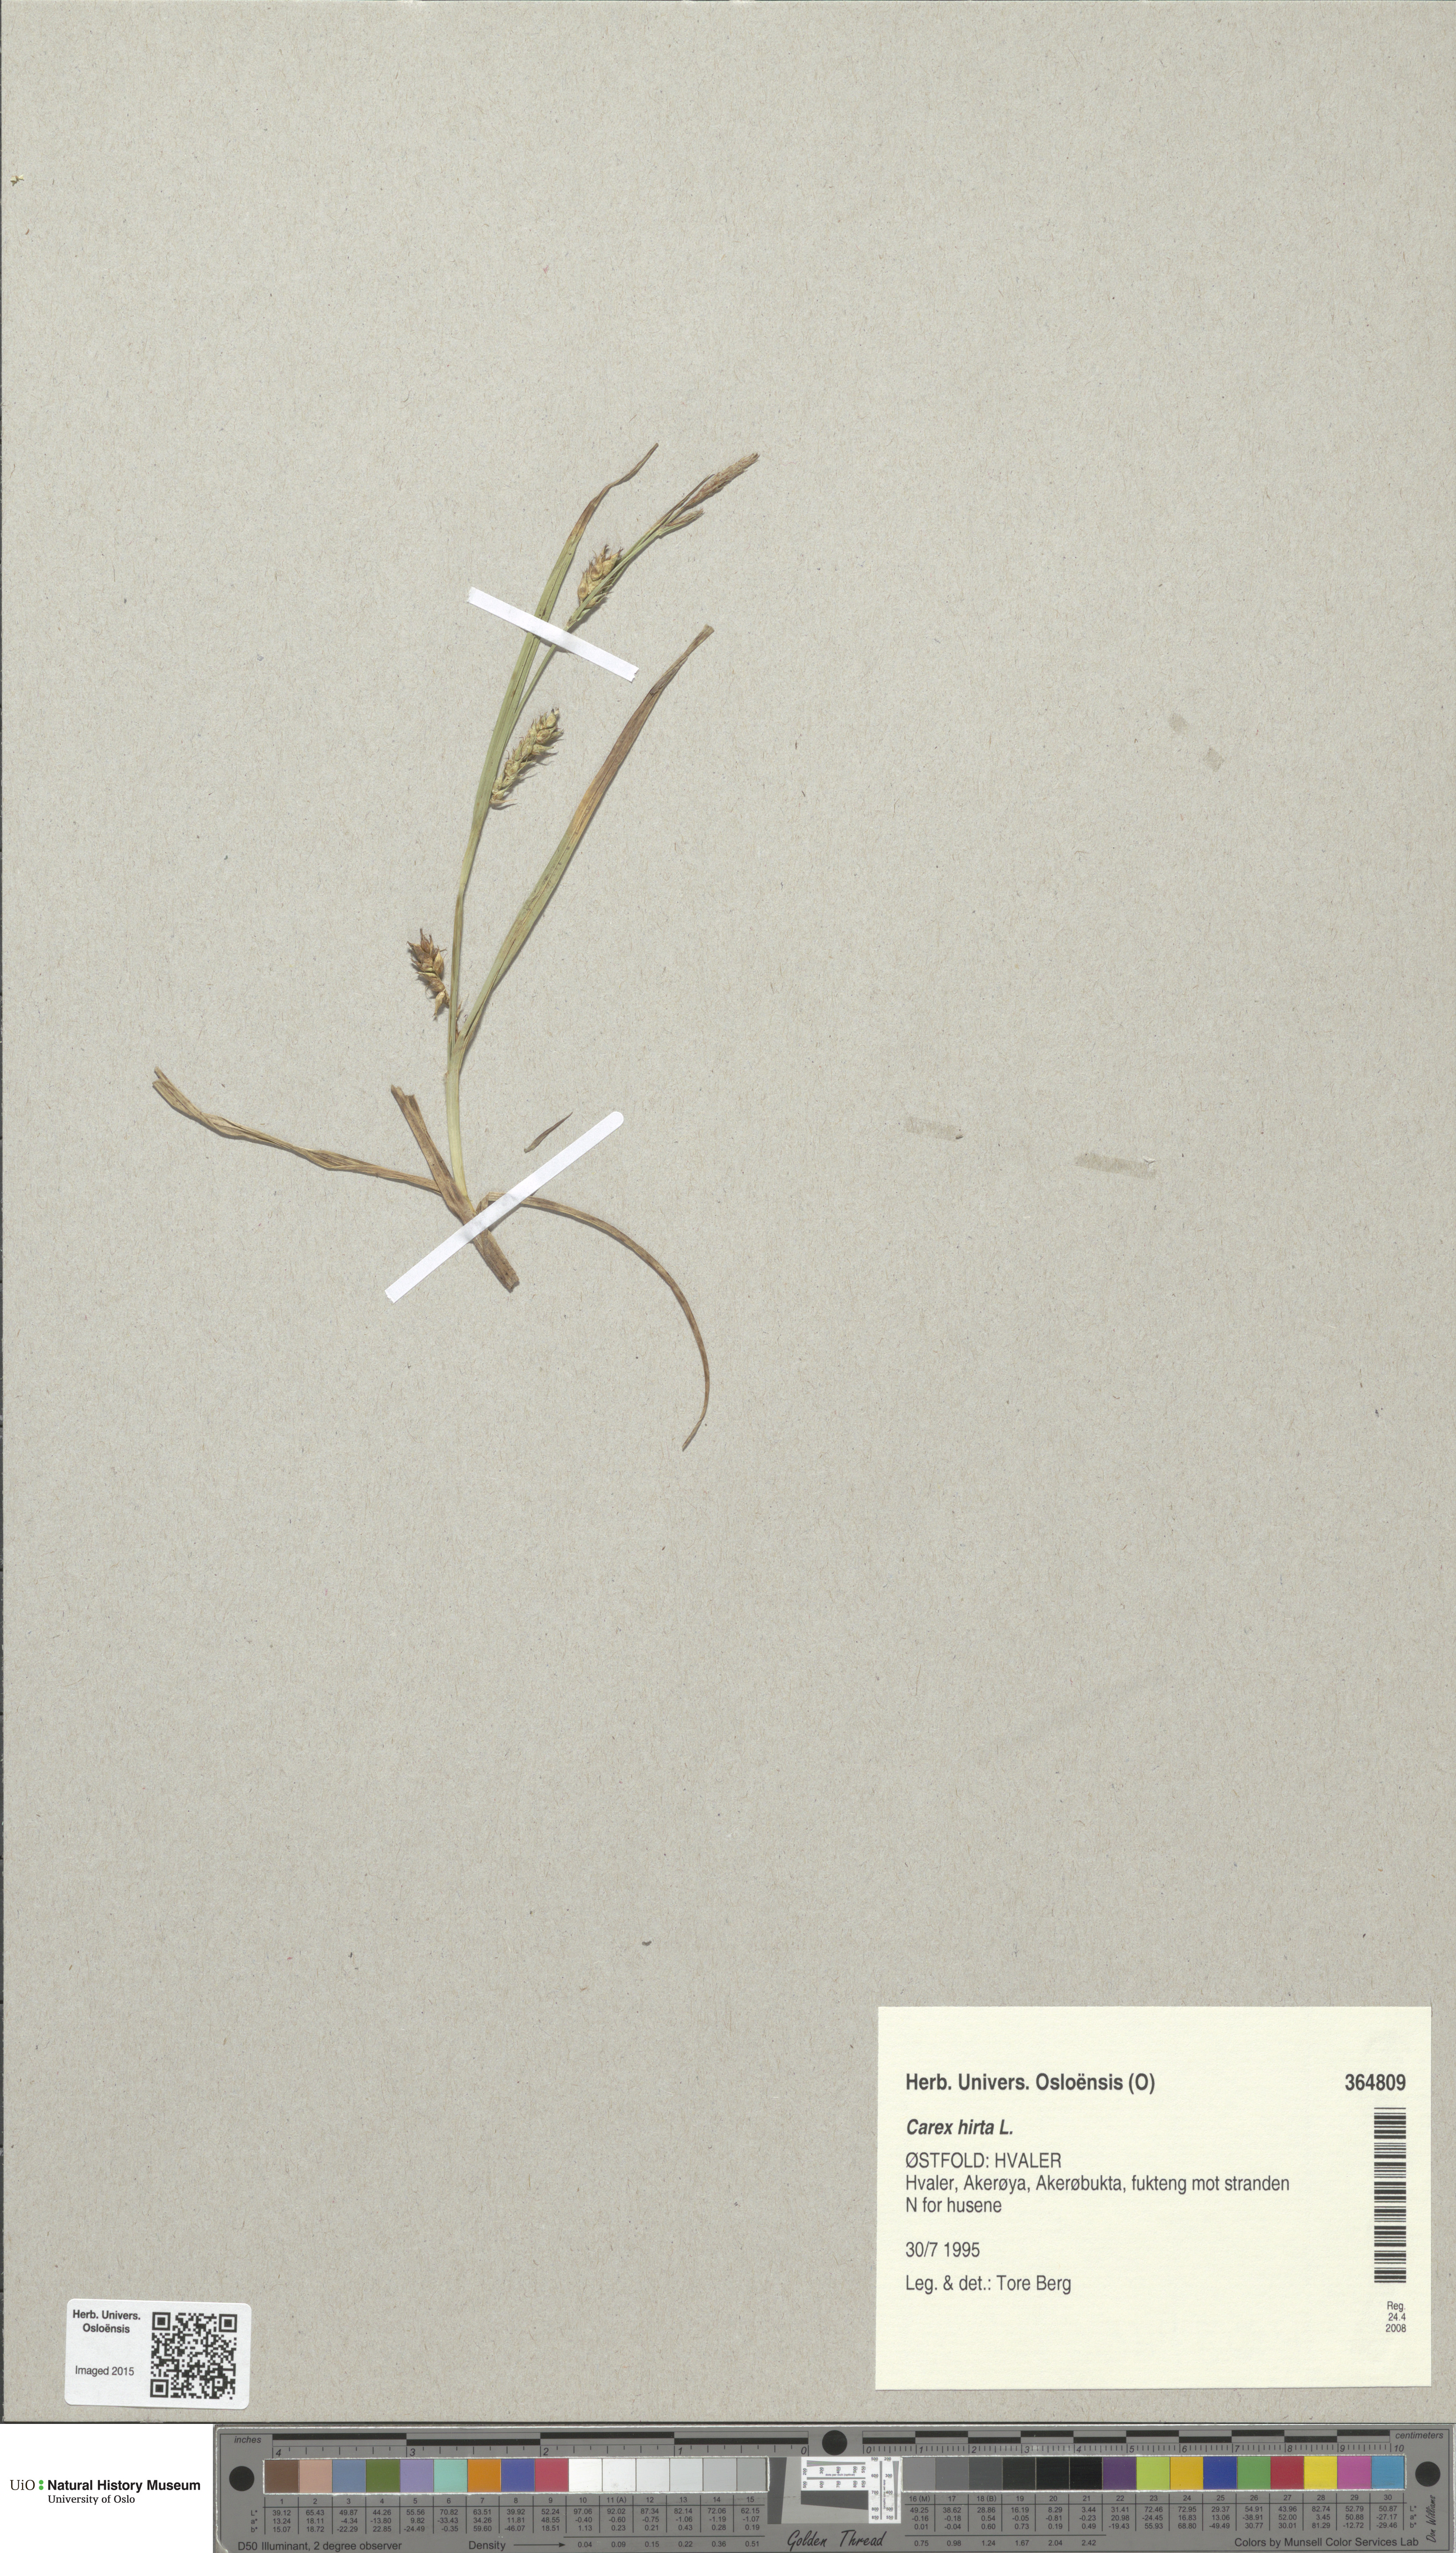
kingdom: Plantae
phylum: Tracheophyta
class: Liliopsida
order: Poales
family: Cyperaceae
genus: Carex
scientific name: Carex hirta
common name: Hairy sedge
